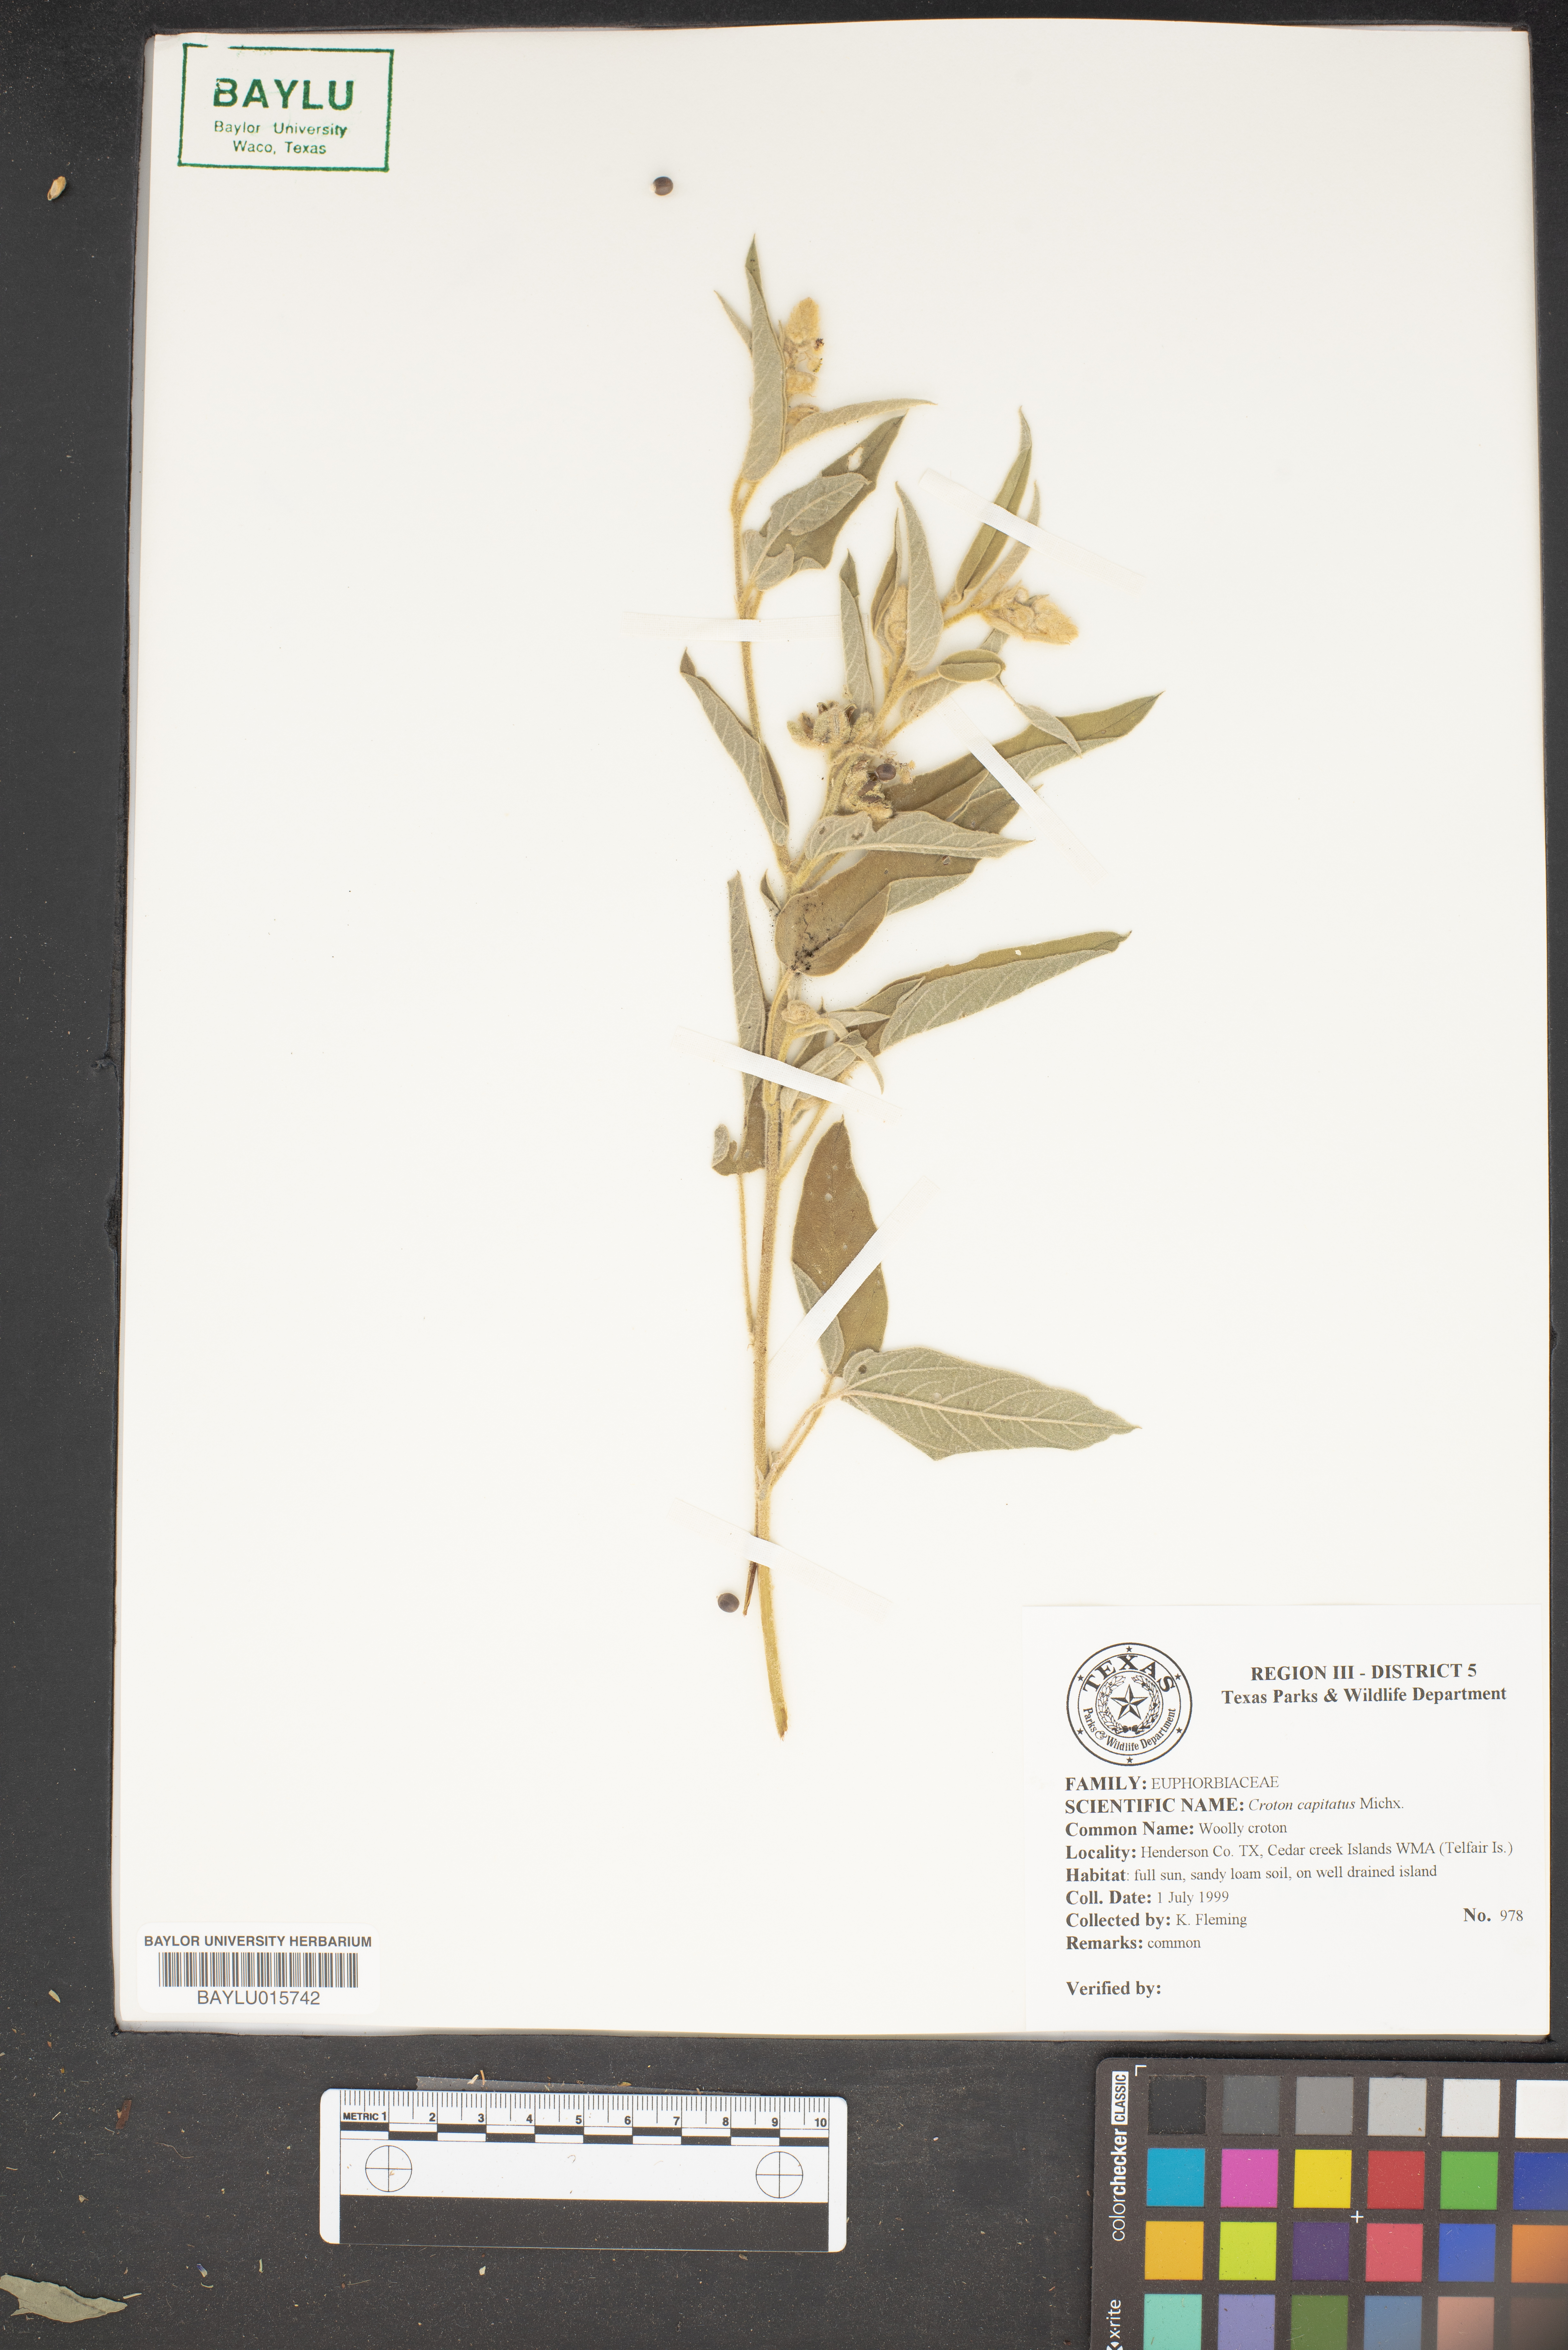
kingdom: Plantae
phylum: Tracheophyta
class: Magnoliopsida
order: Malpighiales
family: Euphorbiaceae
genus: Croton
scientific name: Croton capitatus
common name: Woolly croton
